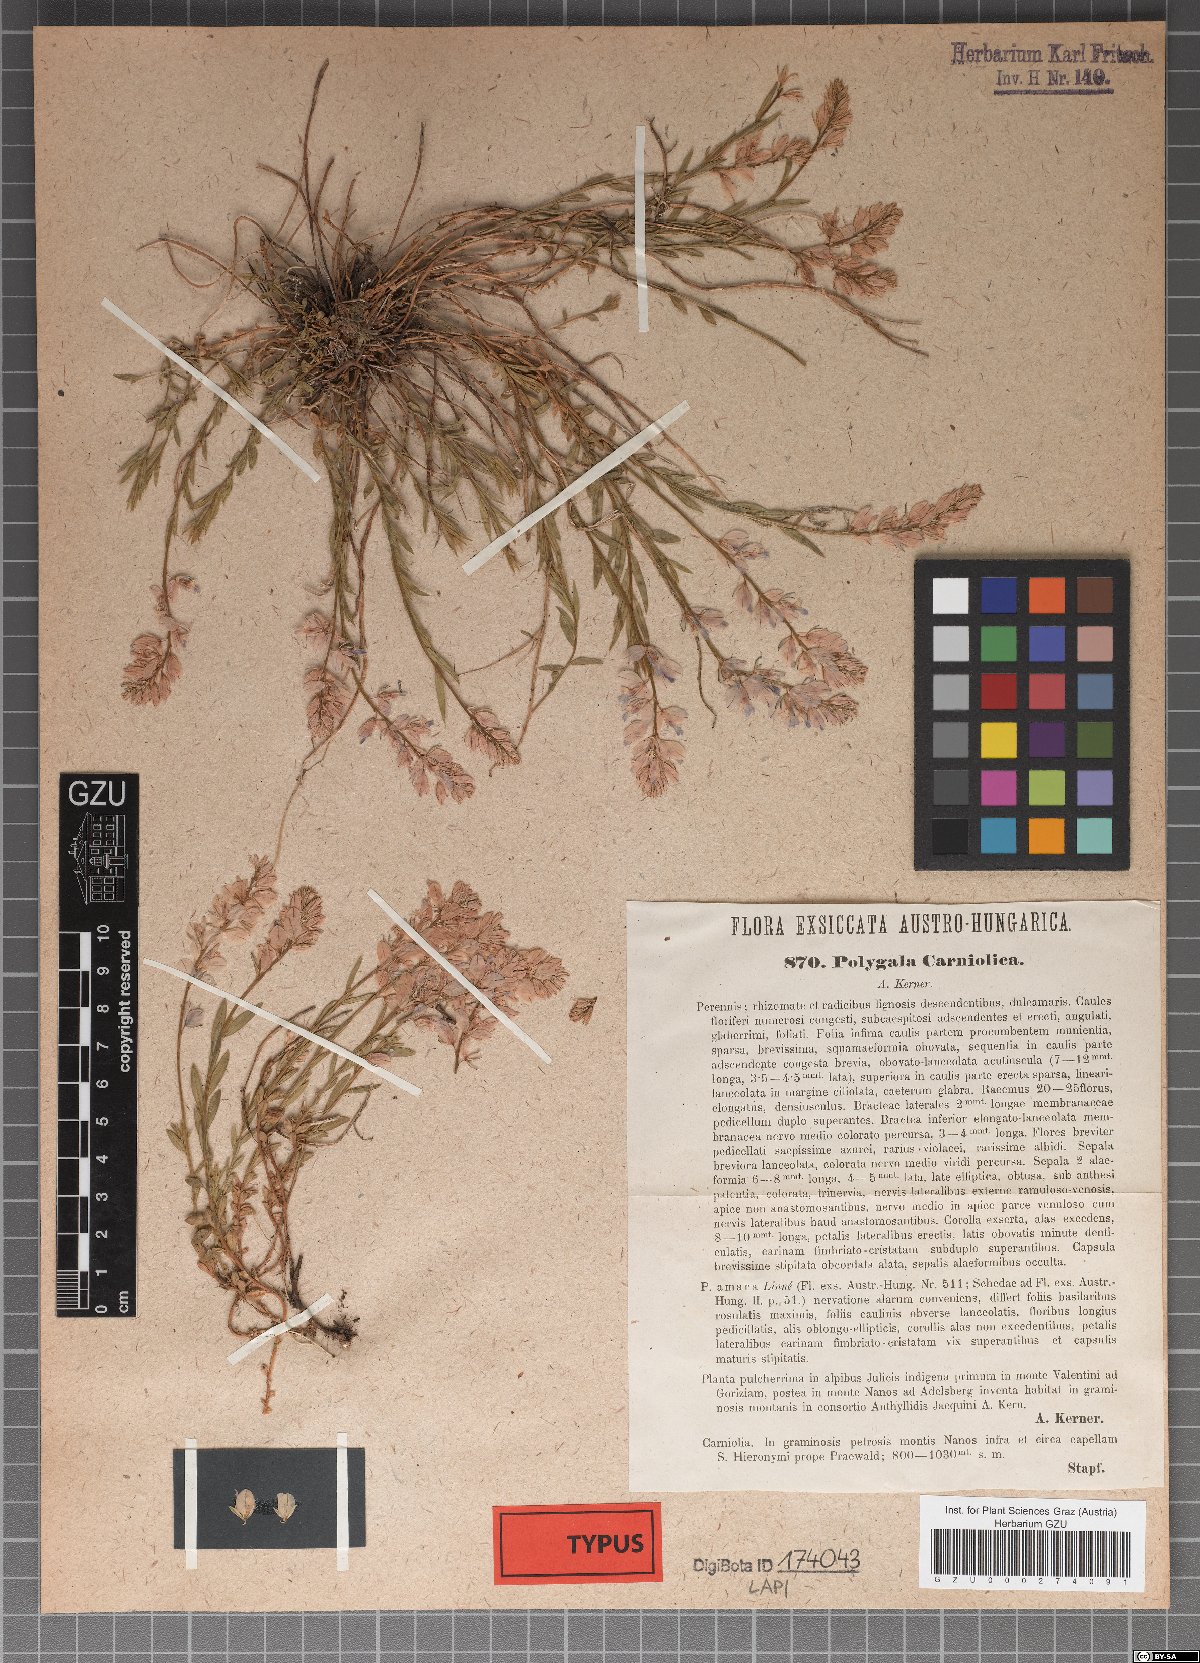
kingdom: Plantae
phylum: Tracheophyta
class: Magnoliopsida
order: Fabales
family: Polygalaceae
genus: Polygala
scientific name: Polygala forojulensis
